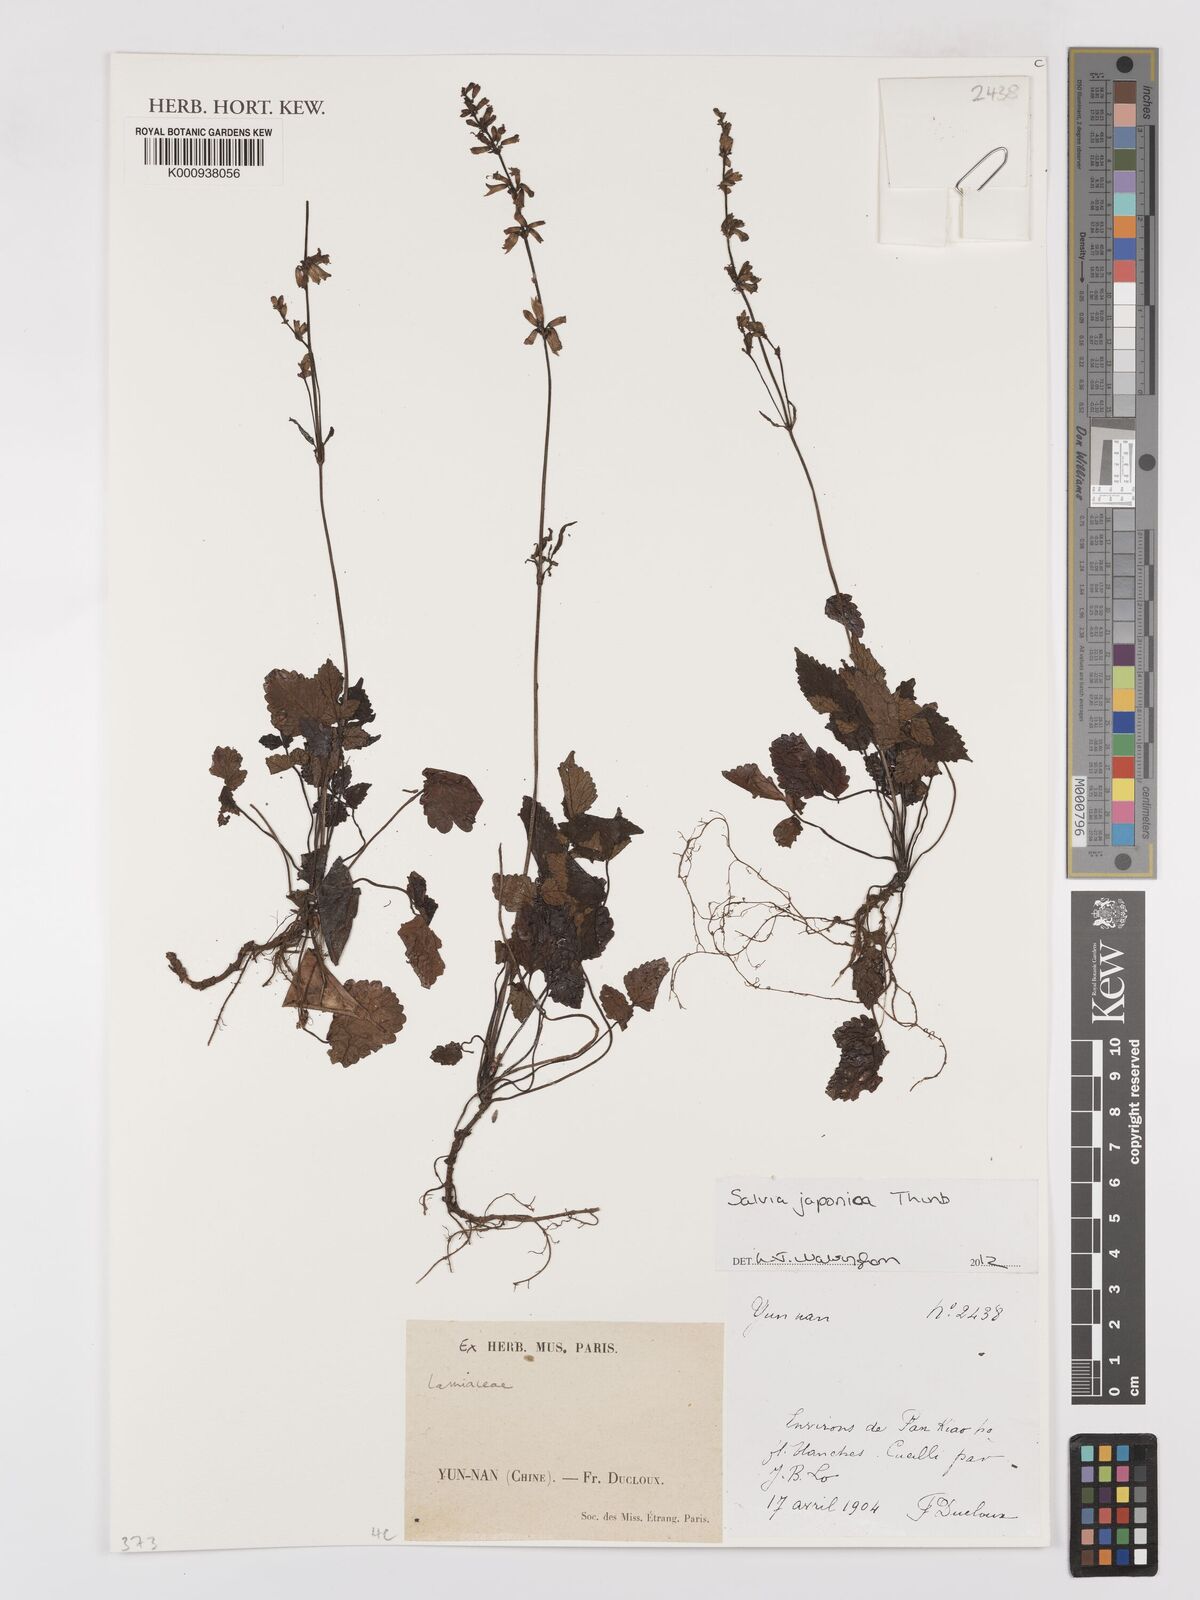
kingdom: Plantae
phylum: Tracheophyta
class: Magnoliopsida
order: Lamiales
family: Lamiaceae
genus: Salvia
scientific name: Salvia japonica
